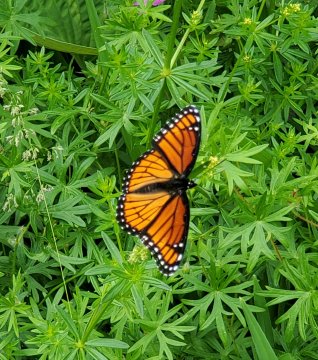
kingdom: Animalia
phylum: Arthropoda
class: Insecta
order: Lepidoptera
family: Nymphalidae
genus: Limenitis
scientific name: Limenitis archippus
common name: Viceroy
